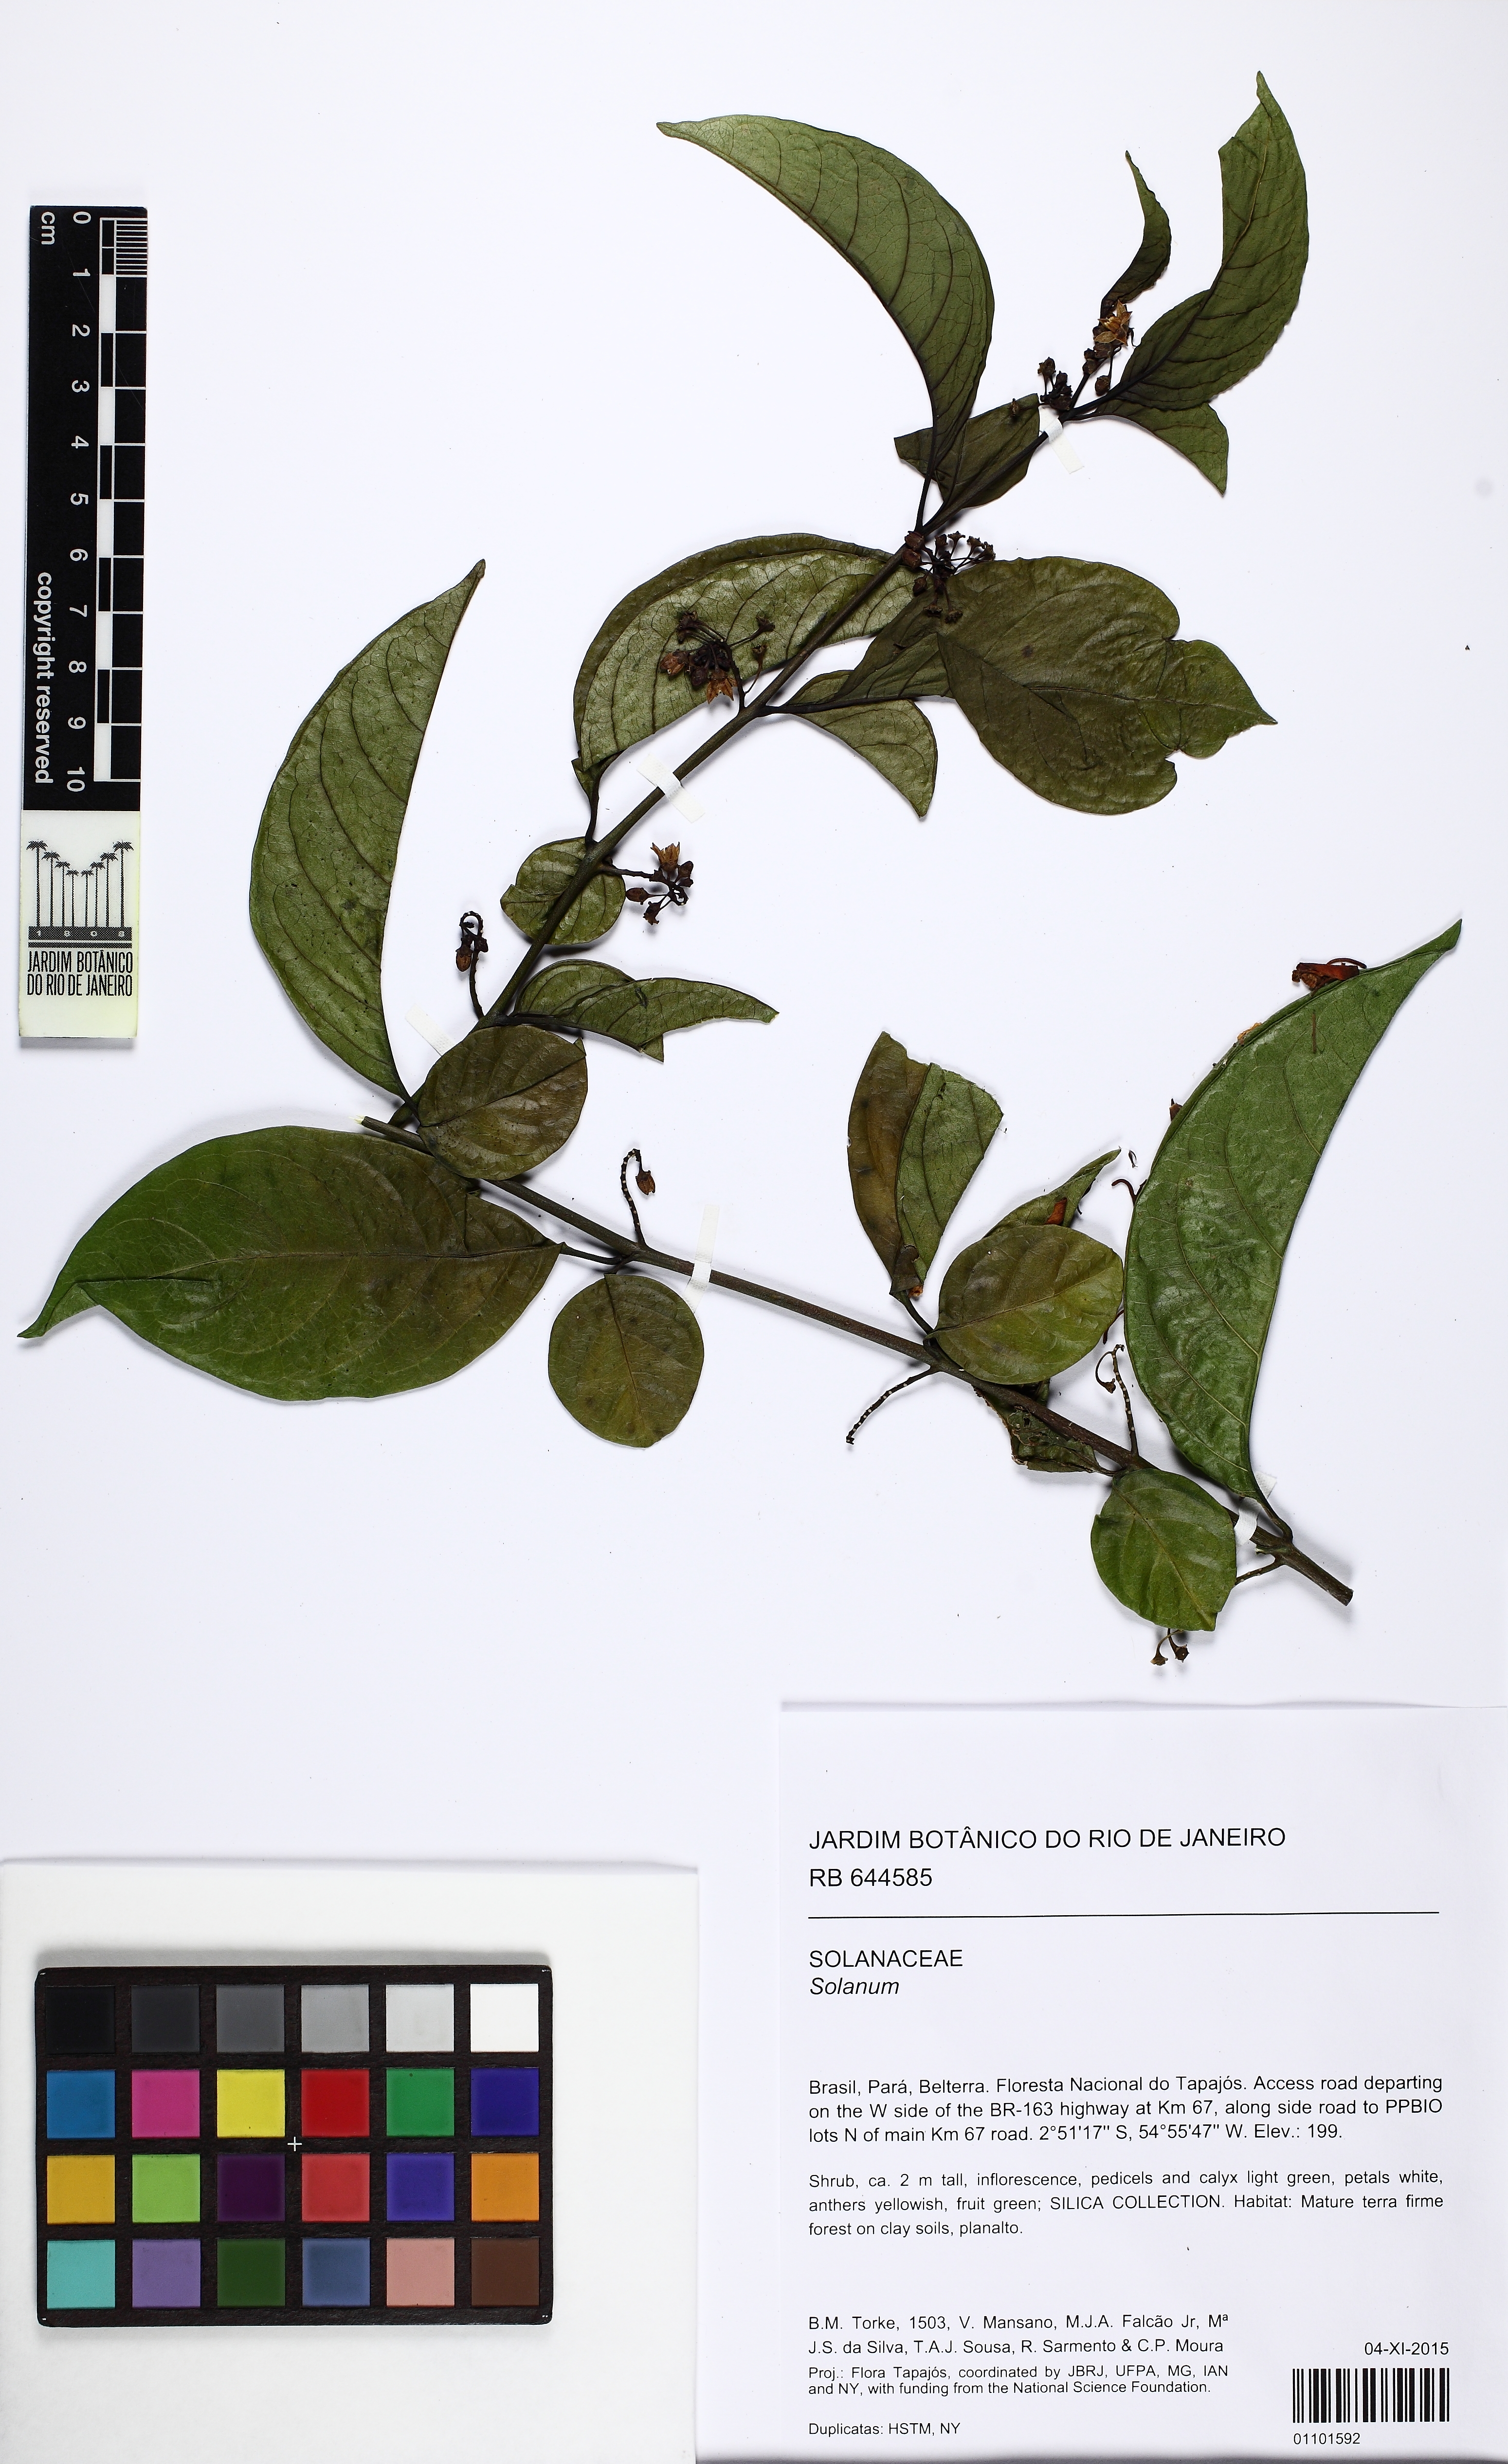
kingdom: Plantae
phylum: Tracheophyta
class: Magnoliopsida
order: Solanales
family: Solanaceae
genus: Solanum
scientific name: Solanum leucocarpon
